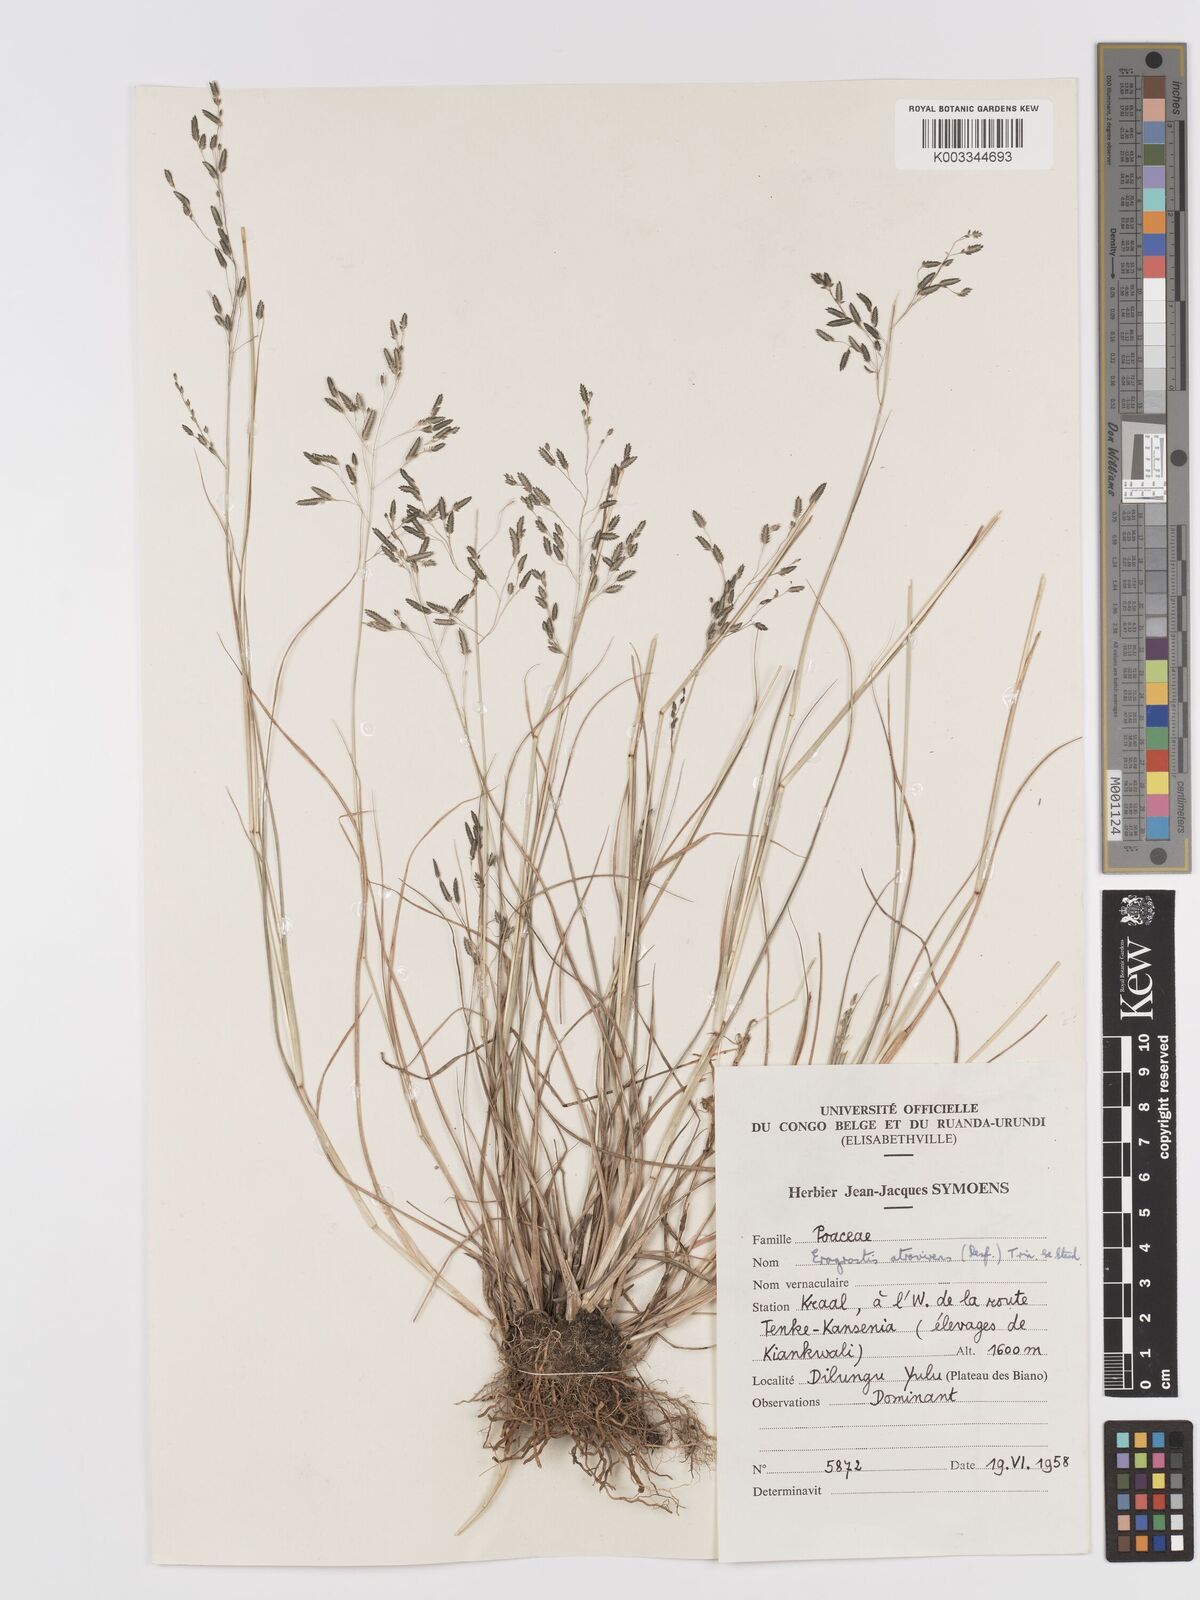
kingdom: Plantae
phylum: Tracheophyta
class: Liliopsida
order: Poales
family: Poaceae
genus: Eragrostis
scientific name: Eragrostis atrovirens
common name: Thalia lovegrass
